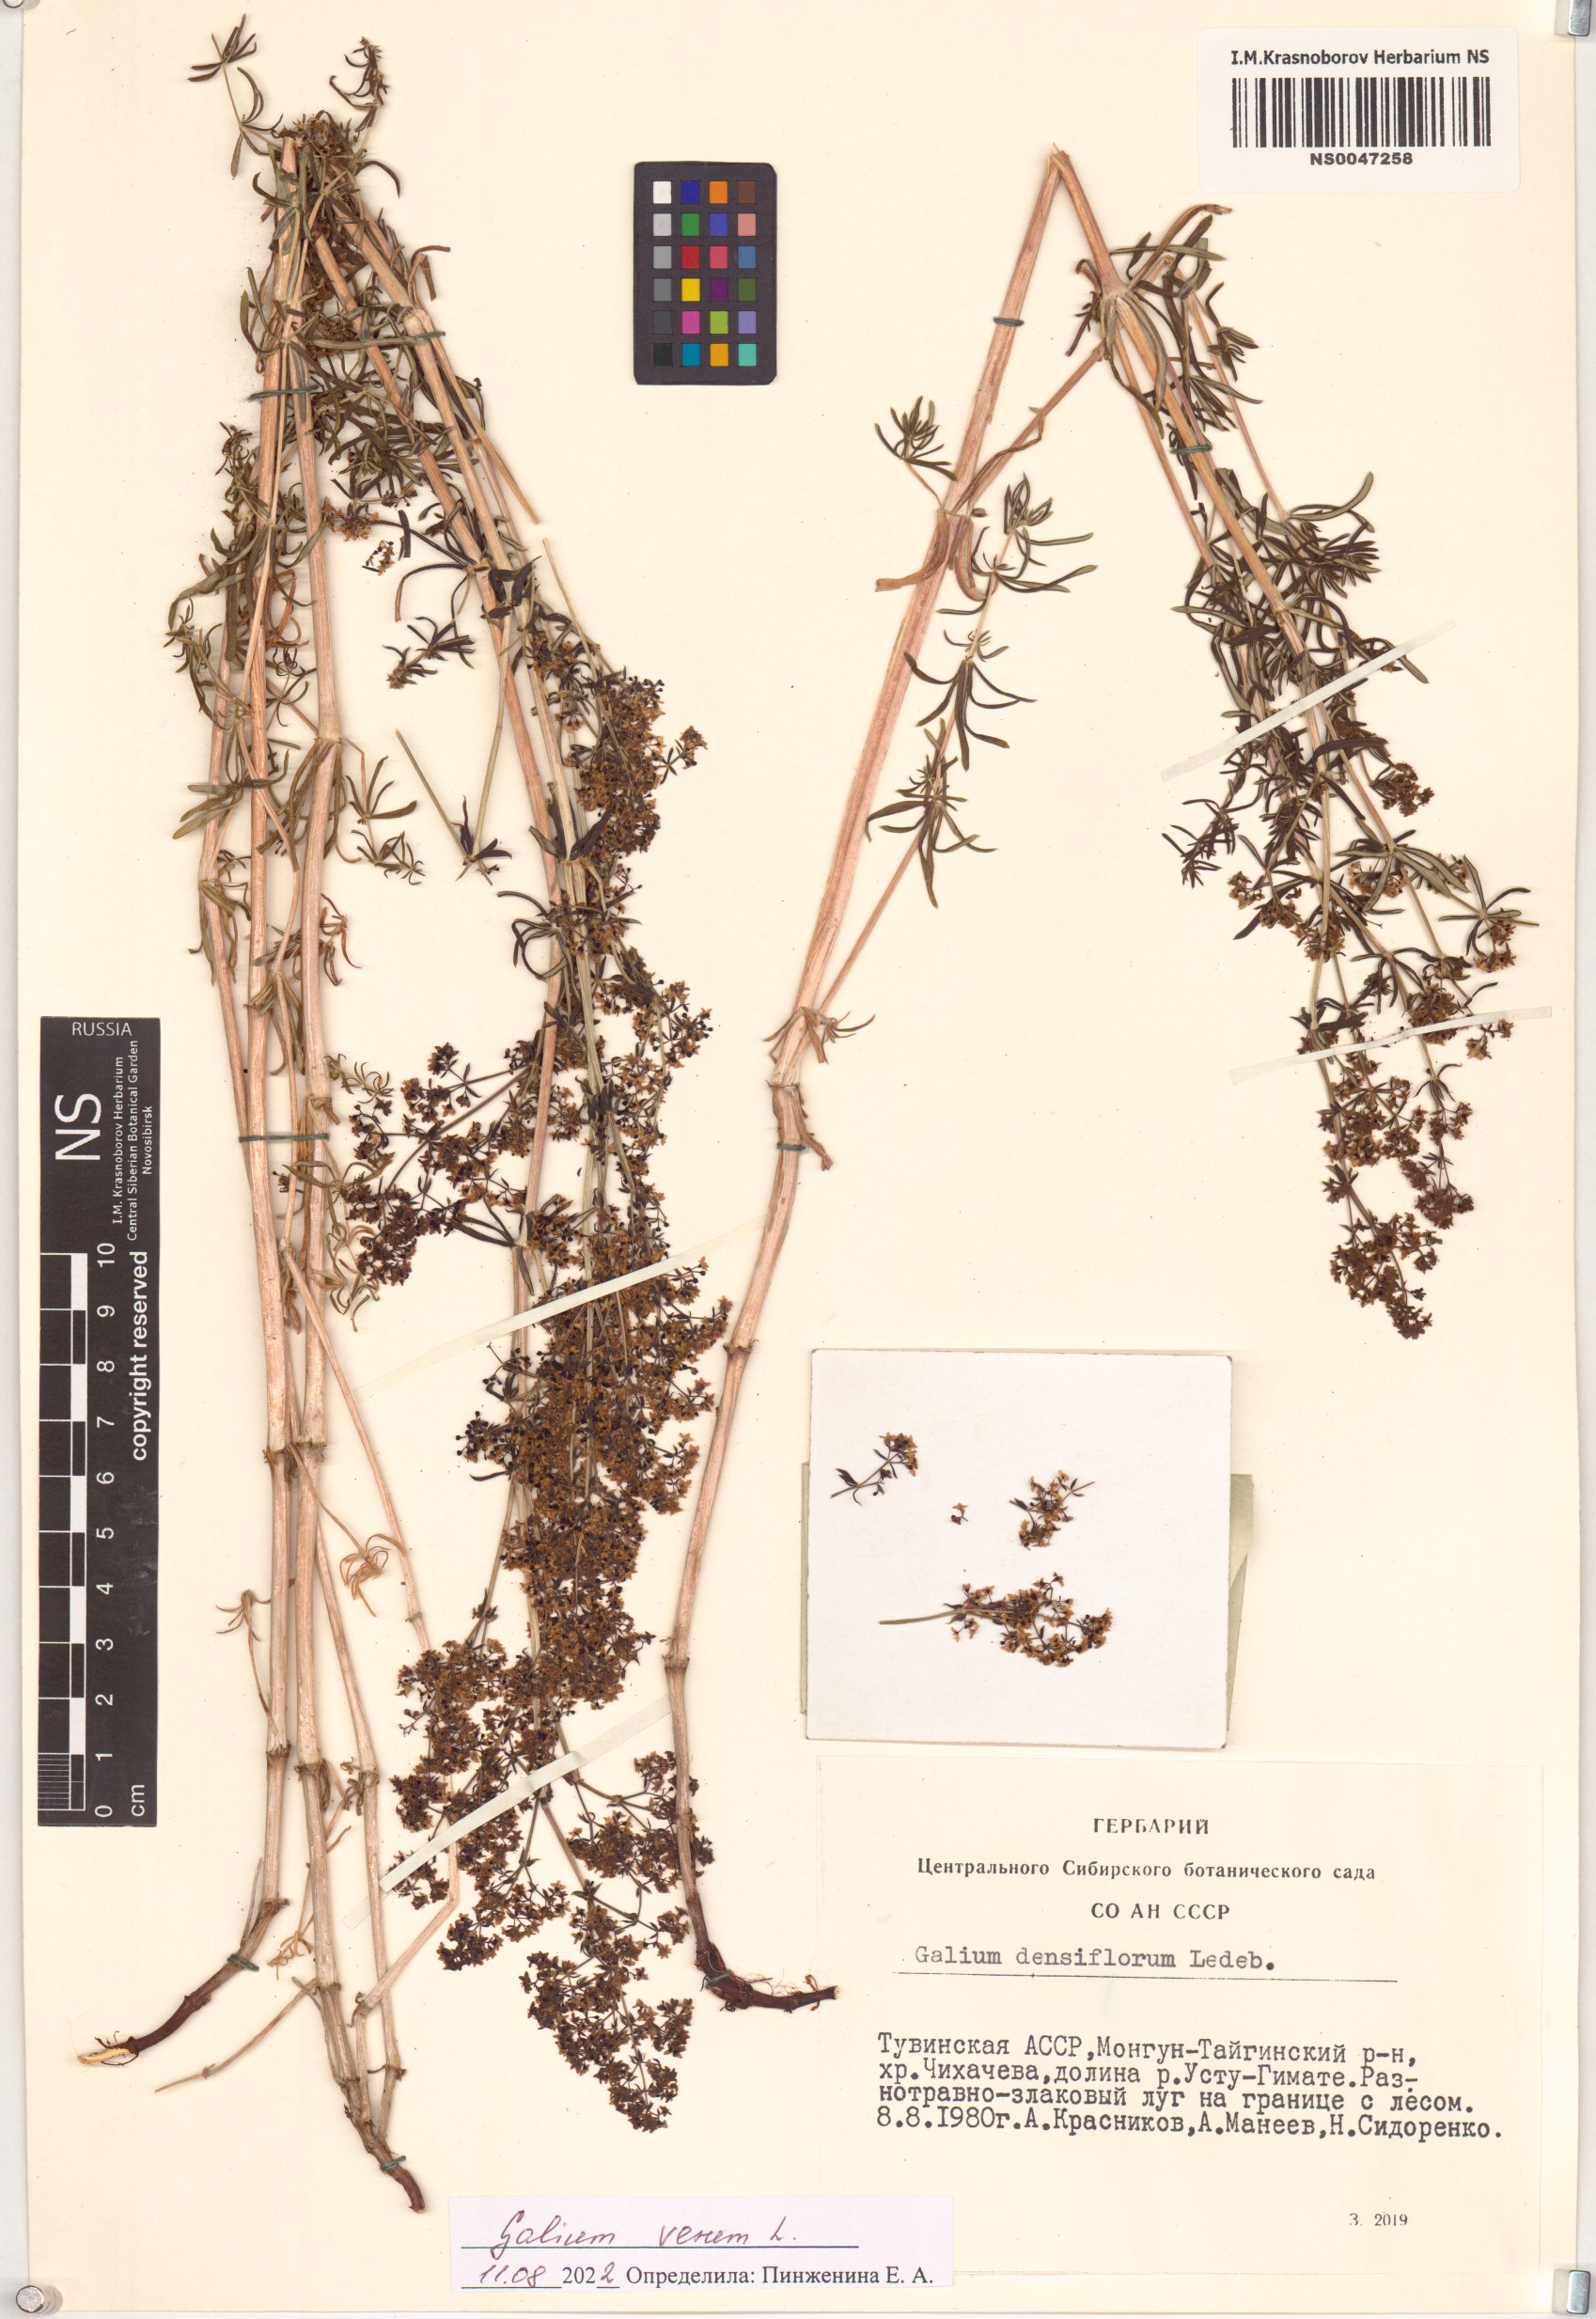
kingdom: Plantae
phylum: Tracheophyta
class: Magnoliopsida
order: Gentianales
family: Rubiaceae
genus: Galium
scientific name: Galium verum
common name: Lady's bedstraw
